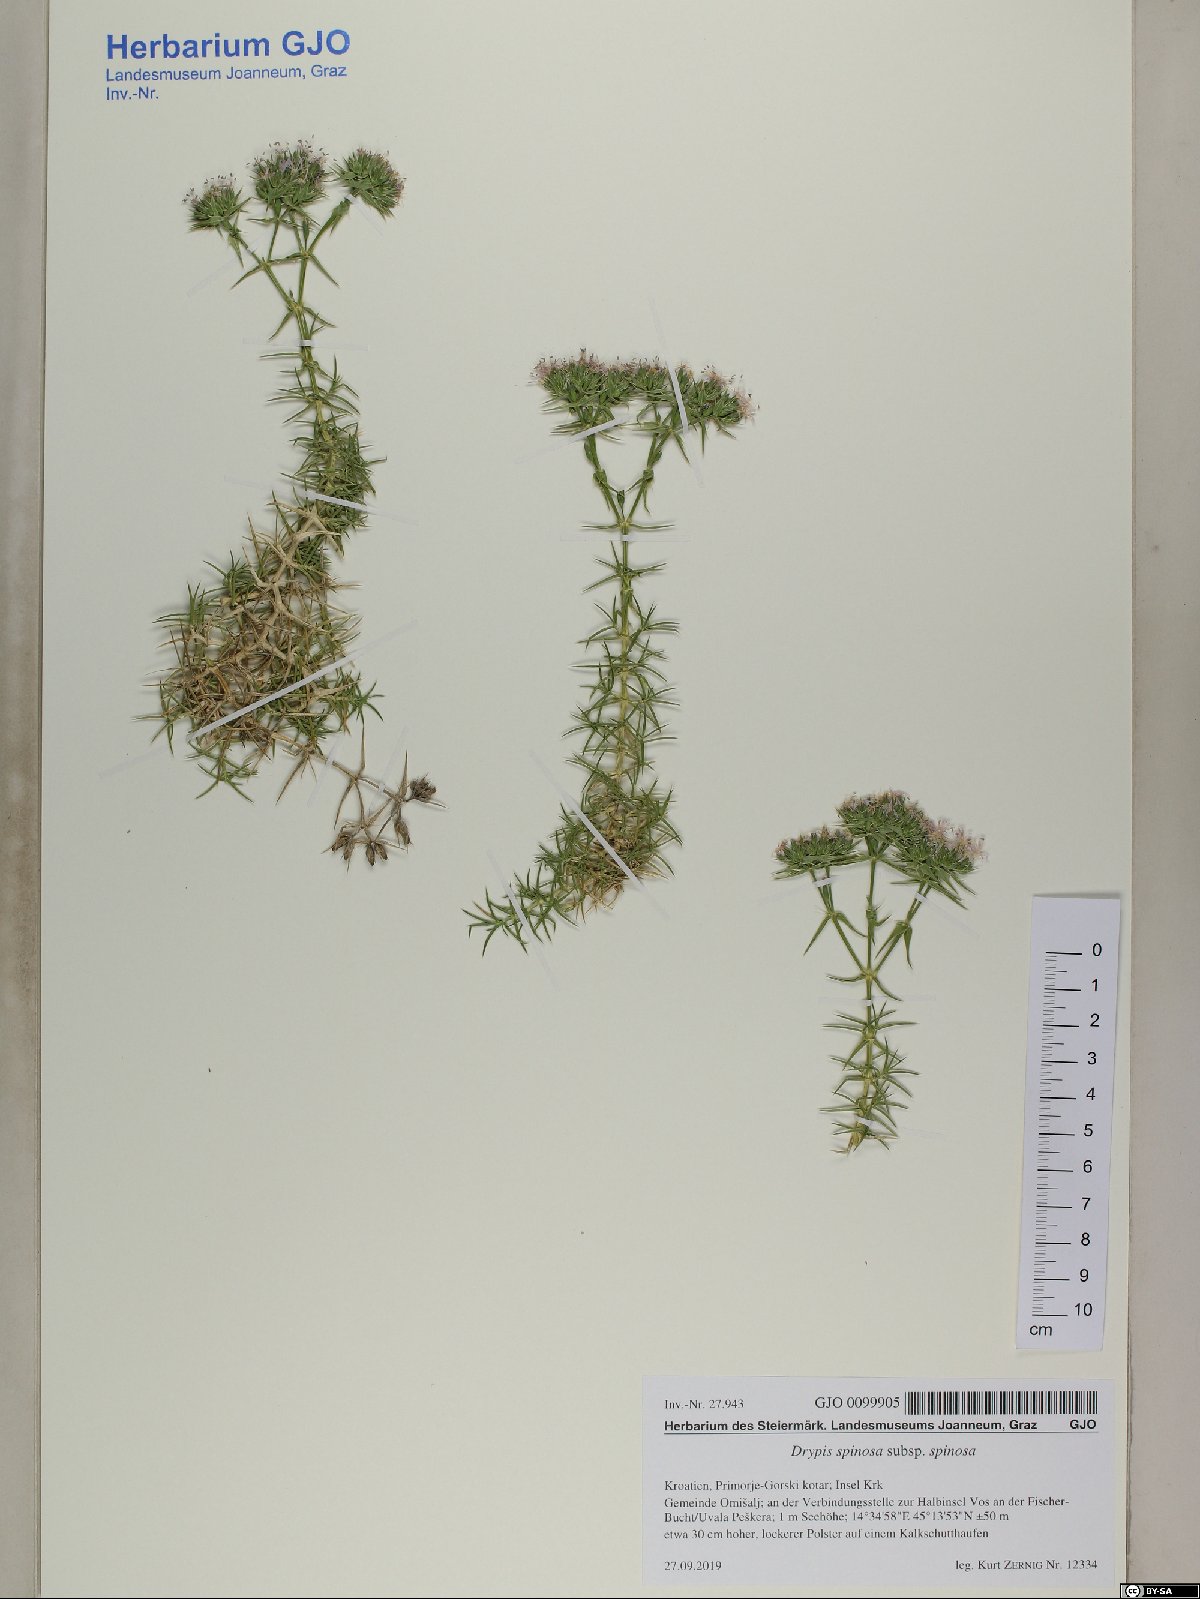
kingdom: Plantae
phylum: Tracheophyta
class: Magnoliopsida
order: Caryophyllales
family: Caryophyllaceae
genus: Drypis
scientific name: Drypis spinosa
